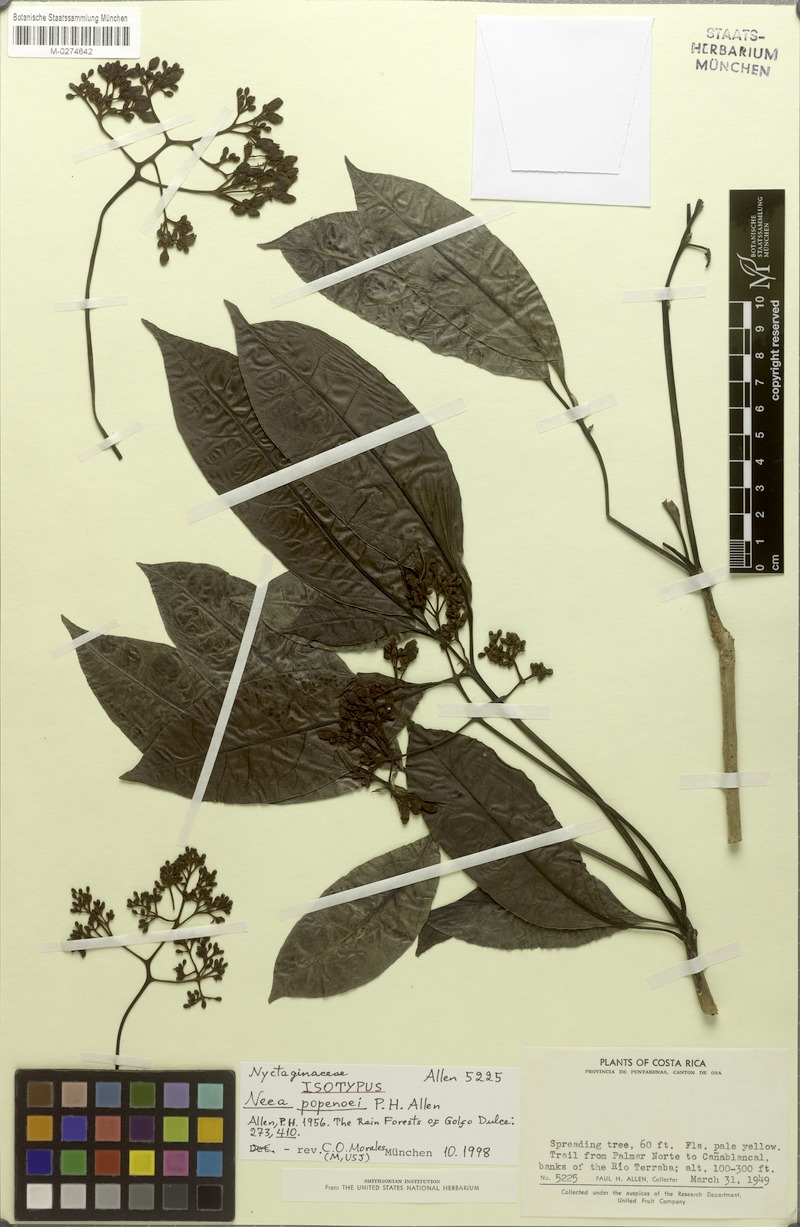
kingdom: Plantae
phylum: Tracheophyta
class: Magnoliopsida
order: Caryophyllales
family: Nyctaginaceae
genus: Neea
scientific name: Neea psychotrioides
